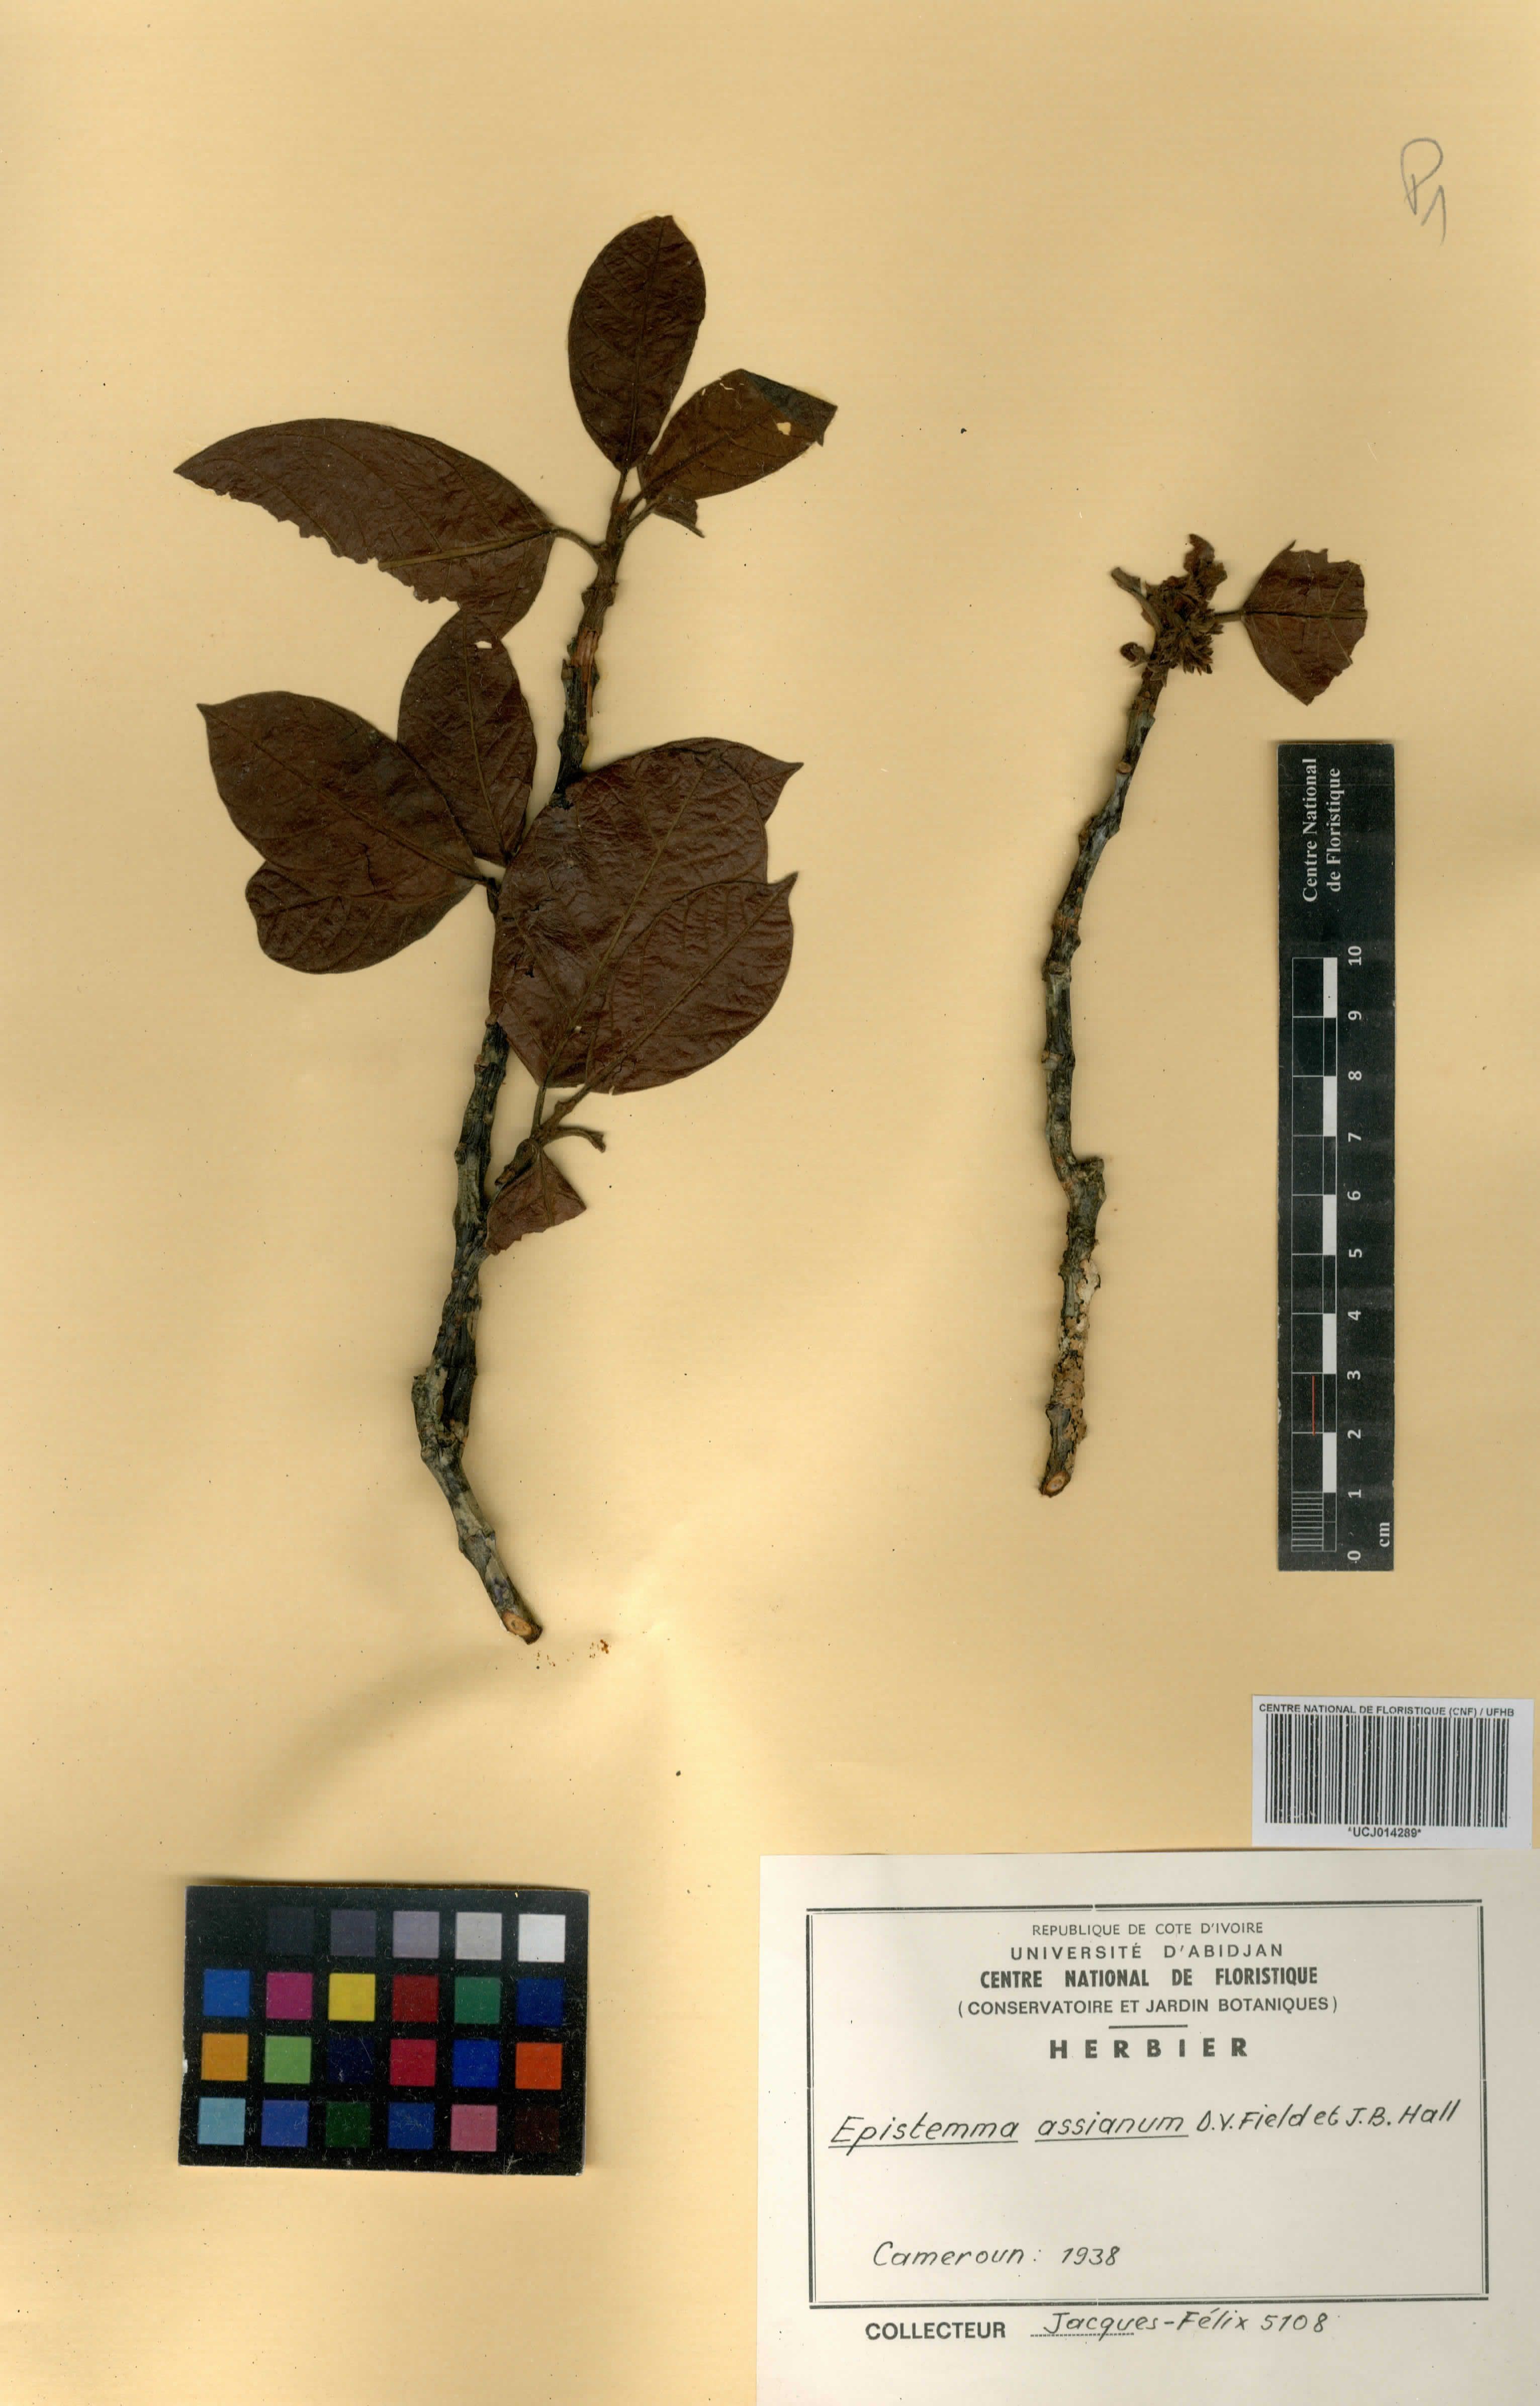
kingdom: Plantae
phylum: Tracheophyta
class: Magnoliopsida
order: Gentianales
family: Apocynaceae
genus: Epistemma
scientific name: Epistemma assianum
